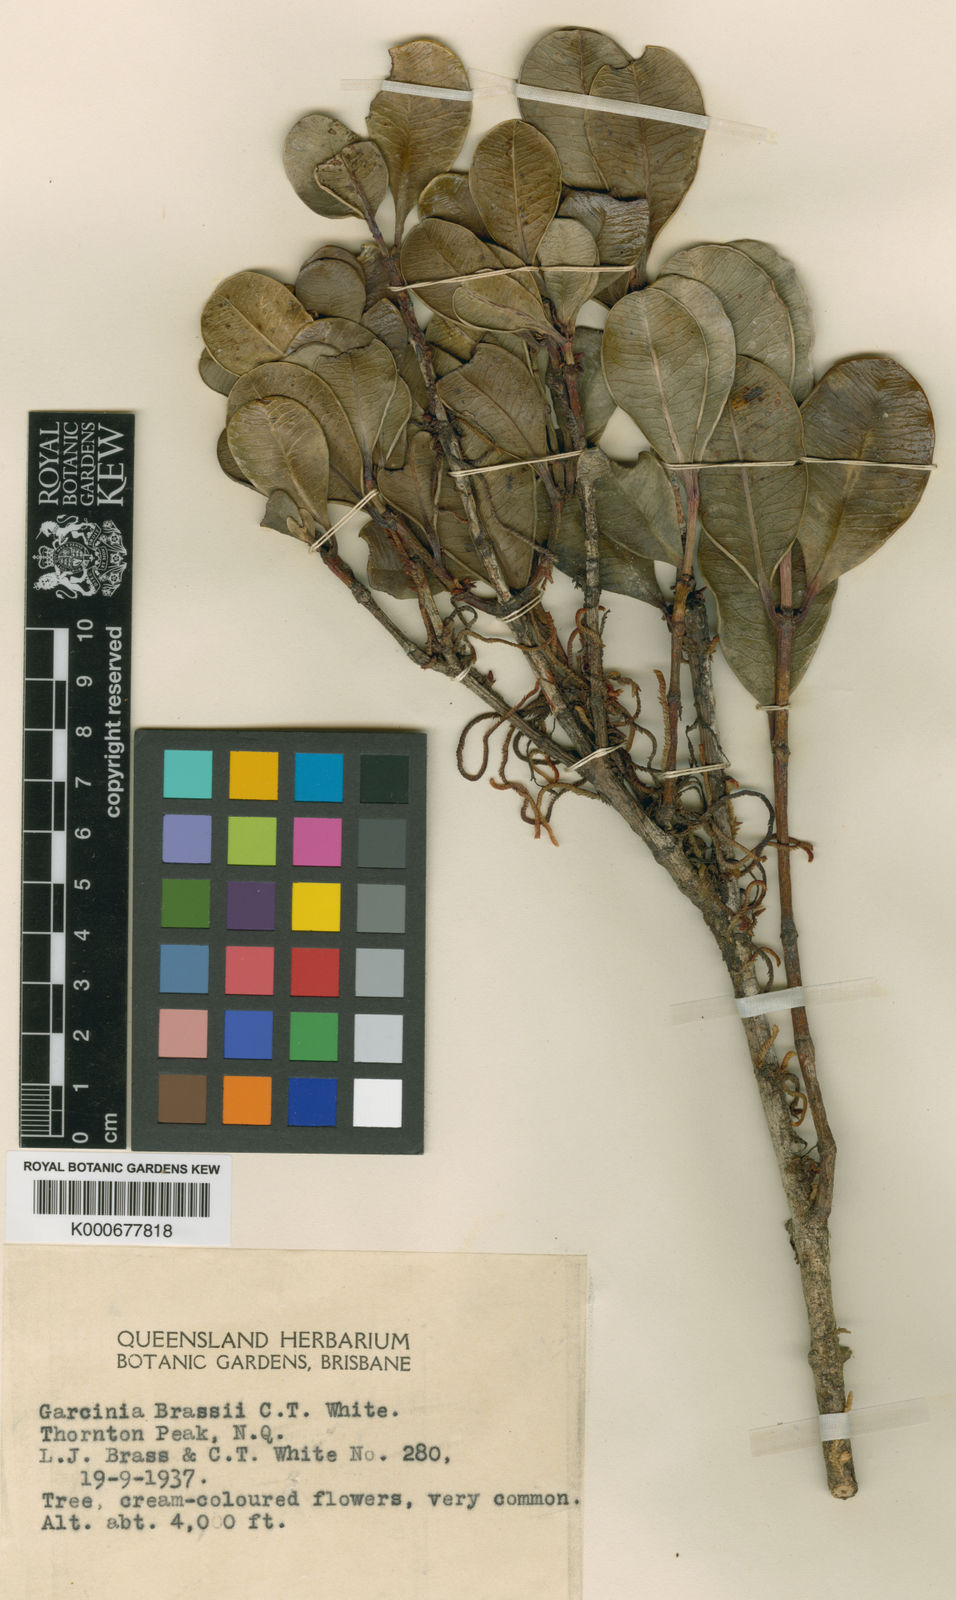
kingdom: Plantae
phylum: Tracheophyta
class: Magnoliopsida
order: Malpighiales
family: Clusiaceae
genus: Garcinia
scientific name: Garcinia brassii
